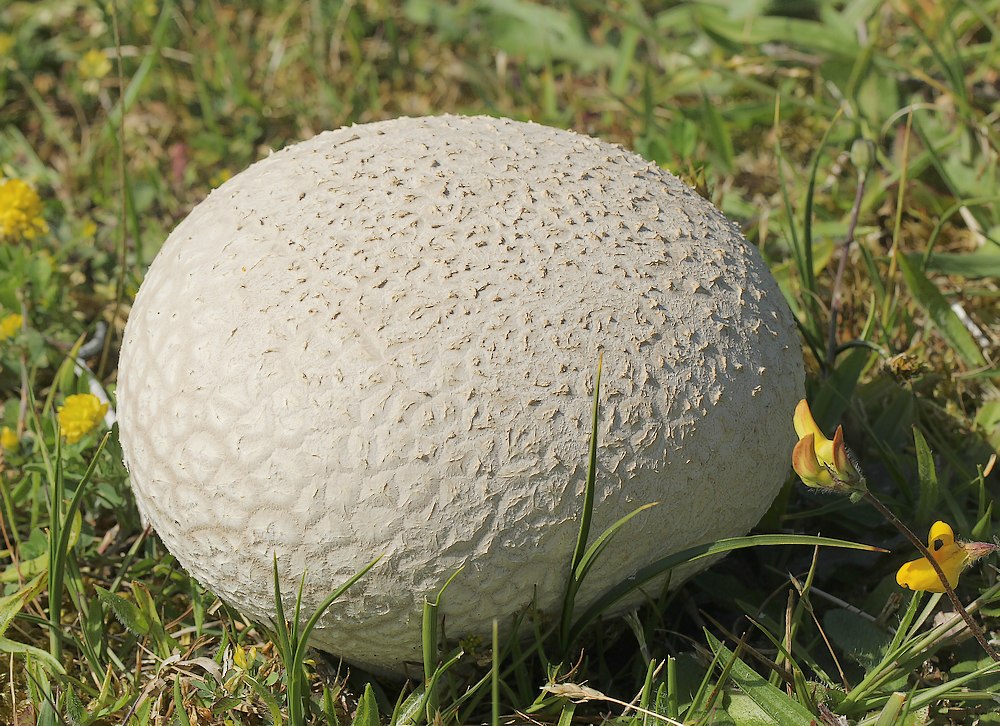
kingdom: Fungi
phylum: Basidiomycota
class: Agaricomycetes
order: Agaricales
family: Lycoperdaceae
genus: Bovistella
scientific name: Bovistella utriformis
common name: skællet støvbold
